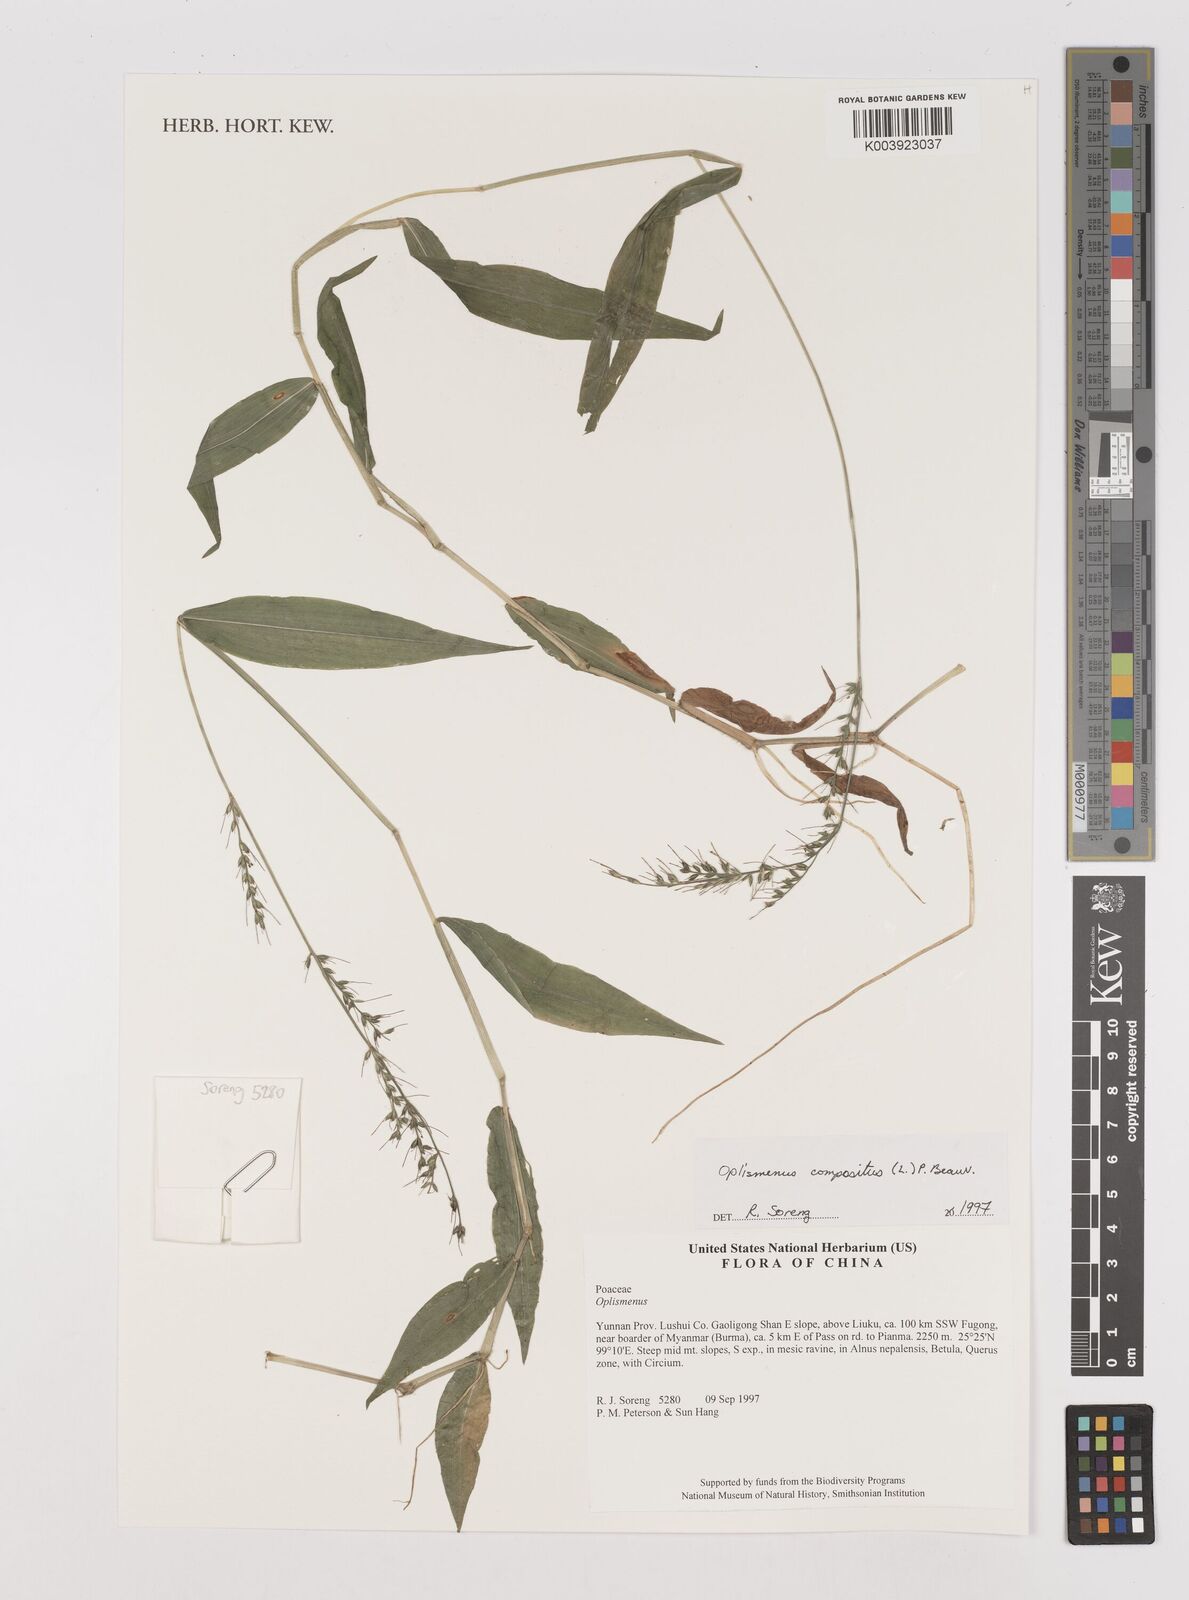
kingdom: Plantae
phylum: Tracheophyta
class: Liliopsida
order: Poales
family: Poaceae
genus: Oplismenus
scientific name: Oplismenus compositus
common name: Running mountain grass
